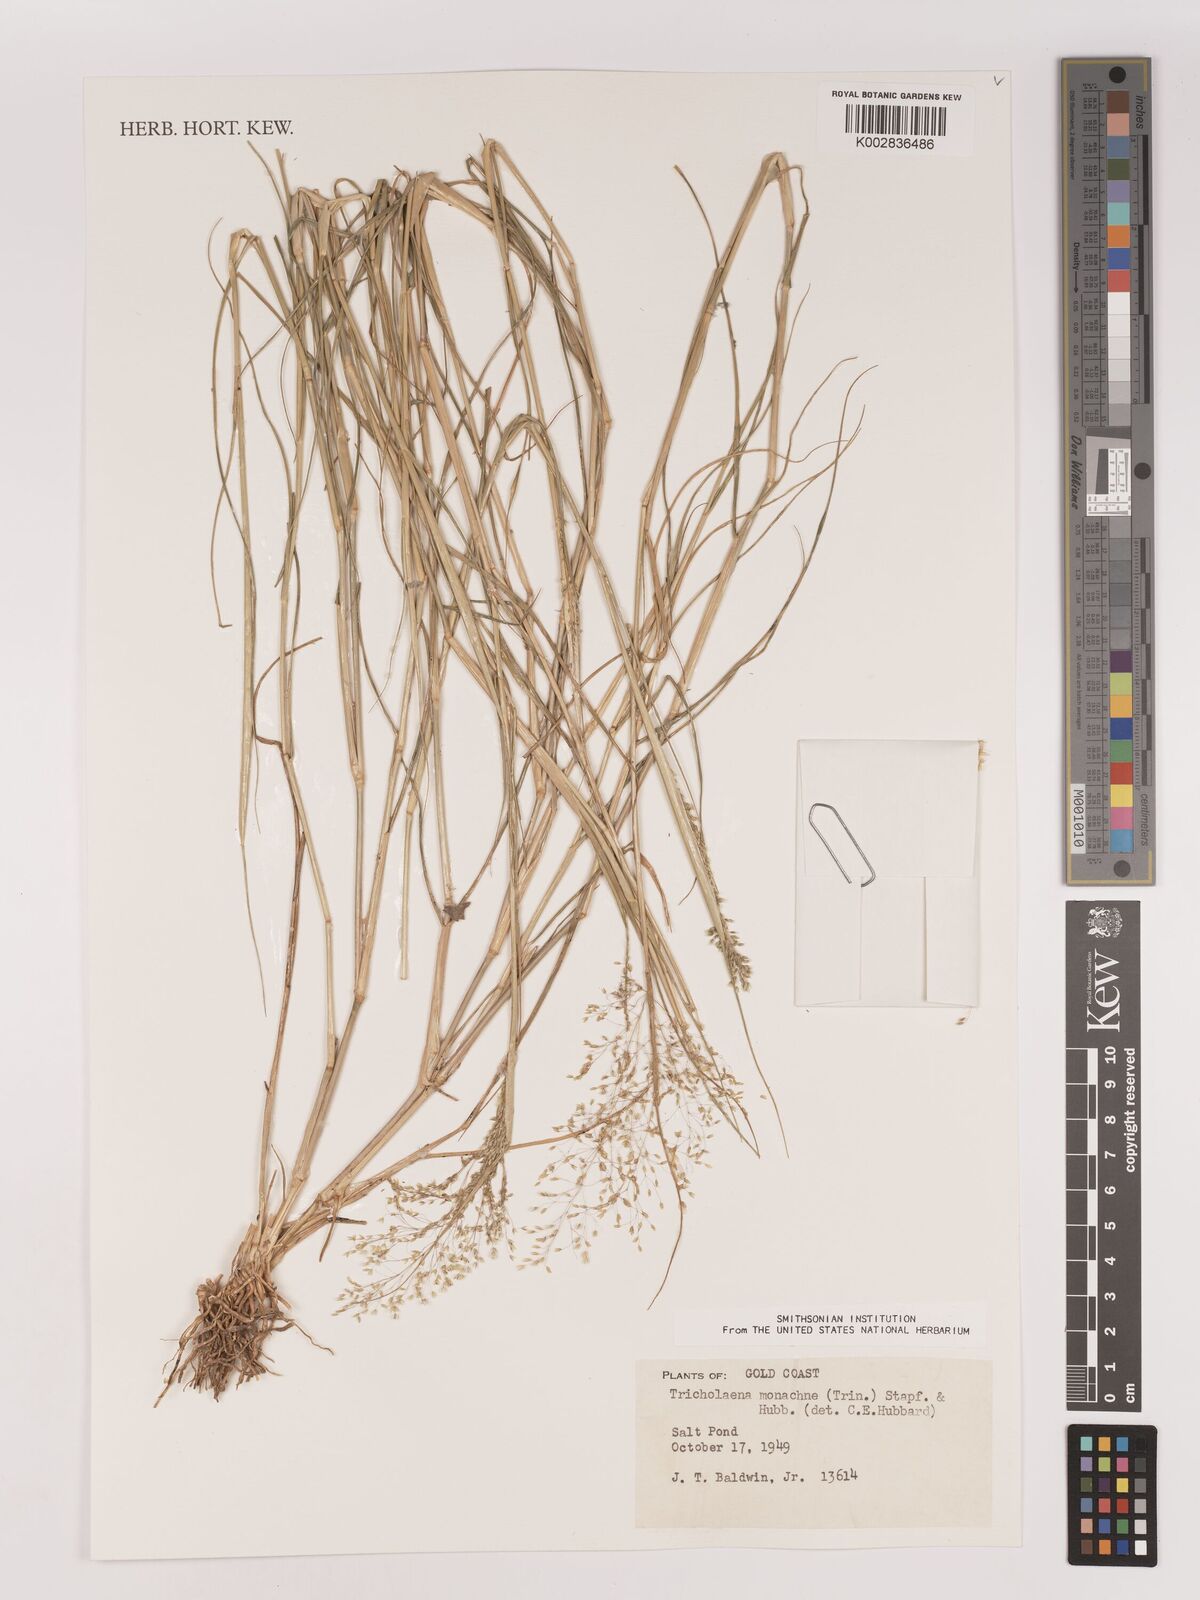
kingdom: Plantae
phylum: Tracheophyta
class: Liliopsida
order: Poales
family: Poaceae
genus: Tricholaena
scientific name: Tricholaena monachne
